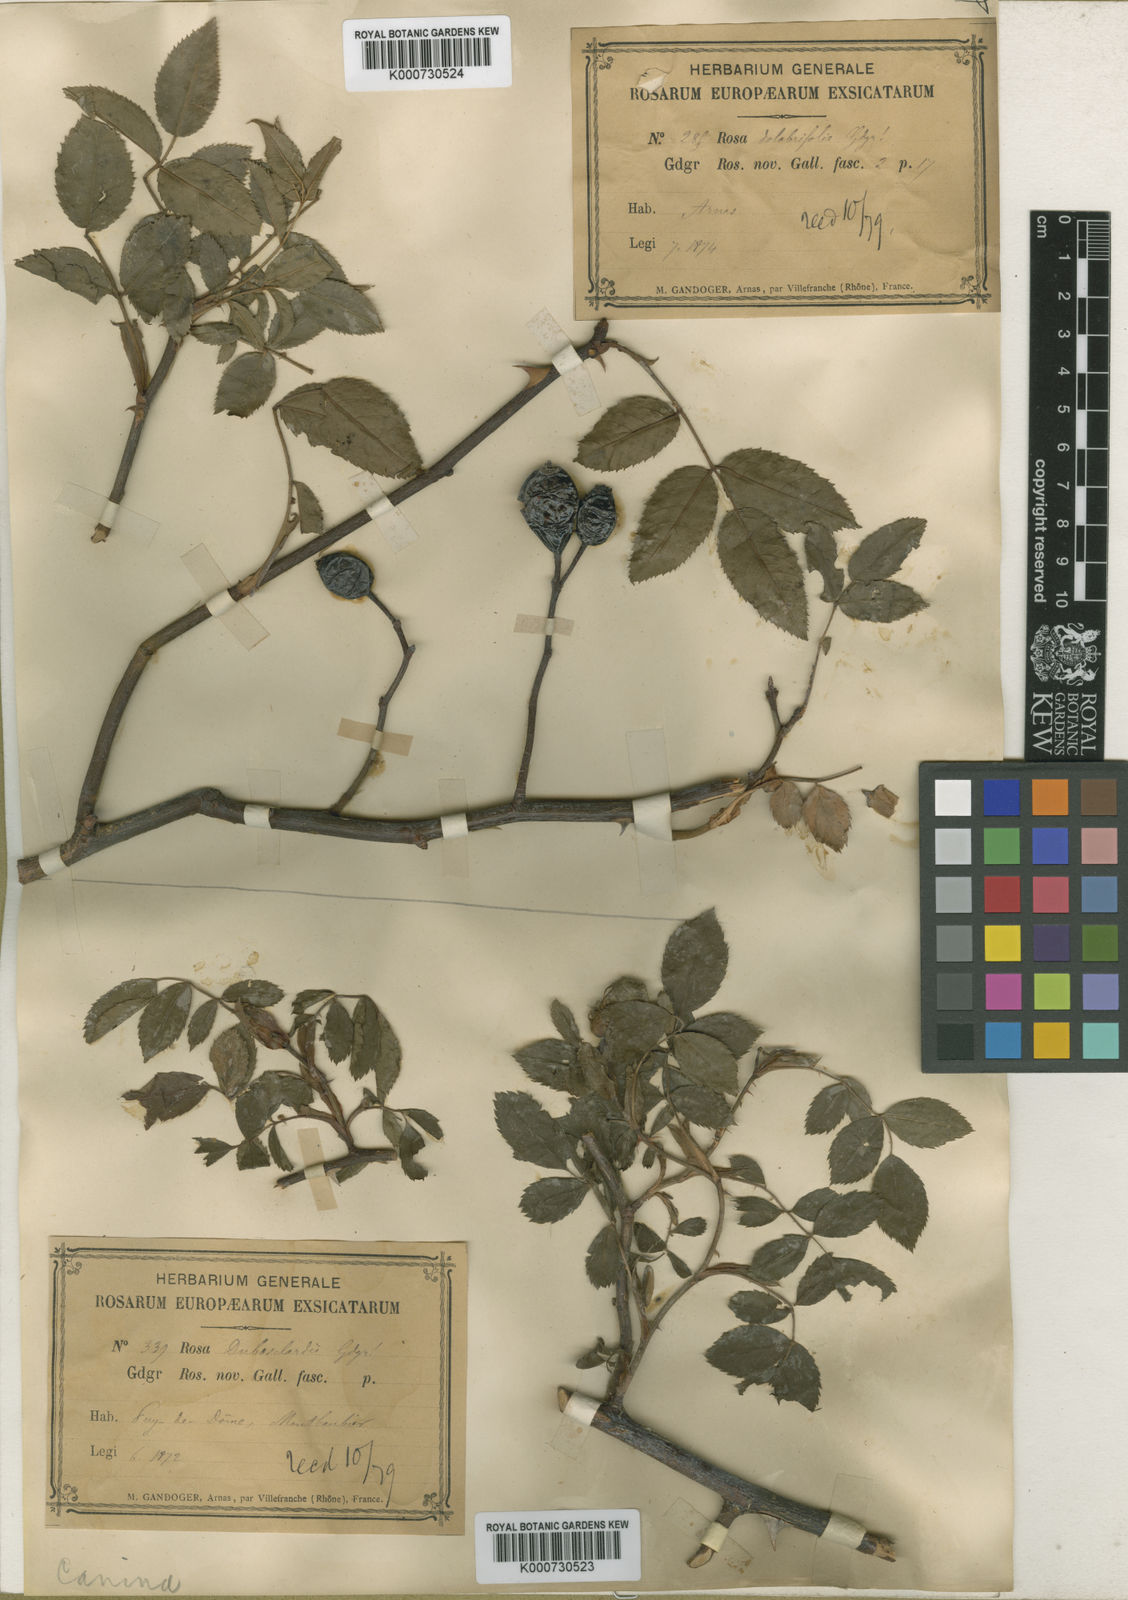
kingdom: Plantae
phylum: Tracheophyta
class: Magnoliopsida
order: Rosales
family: Rosaceae
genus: Rosa
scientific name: Rosa canina
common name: Dog rose
